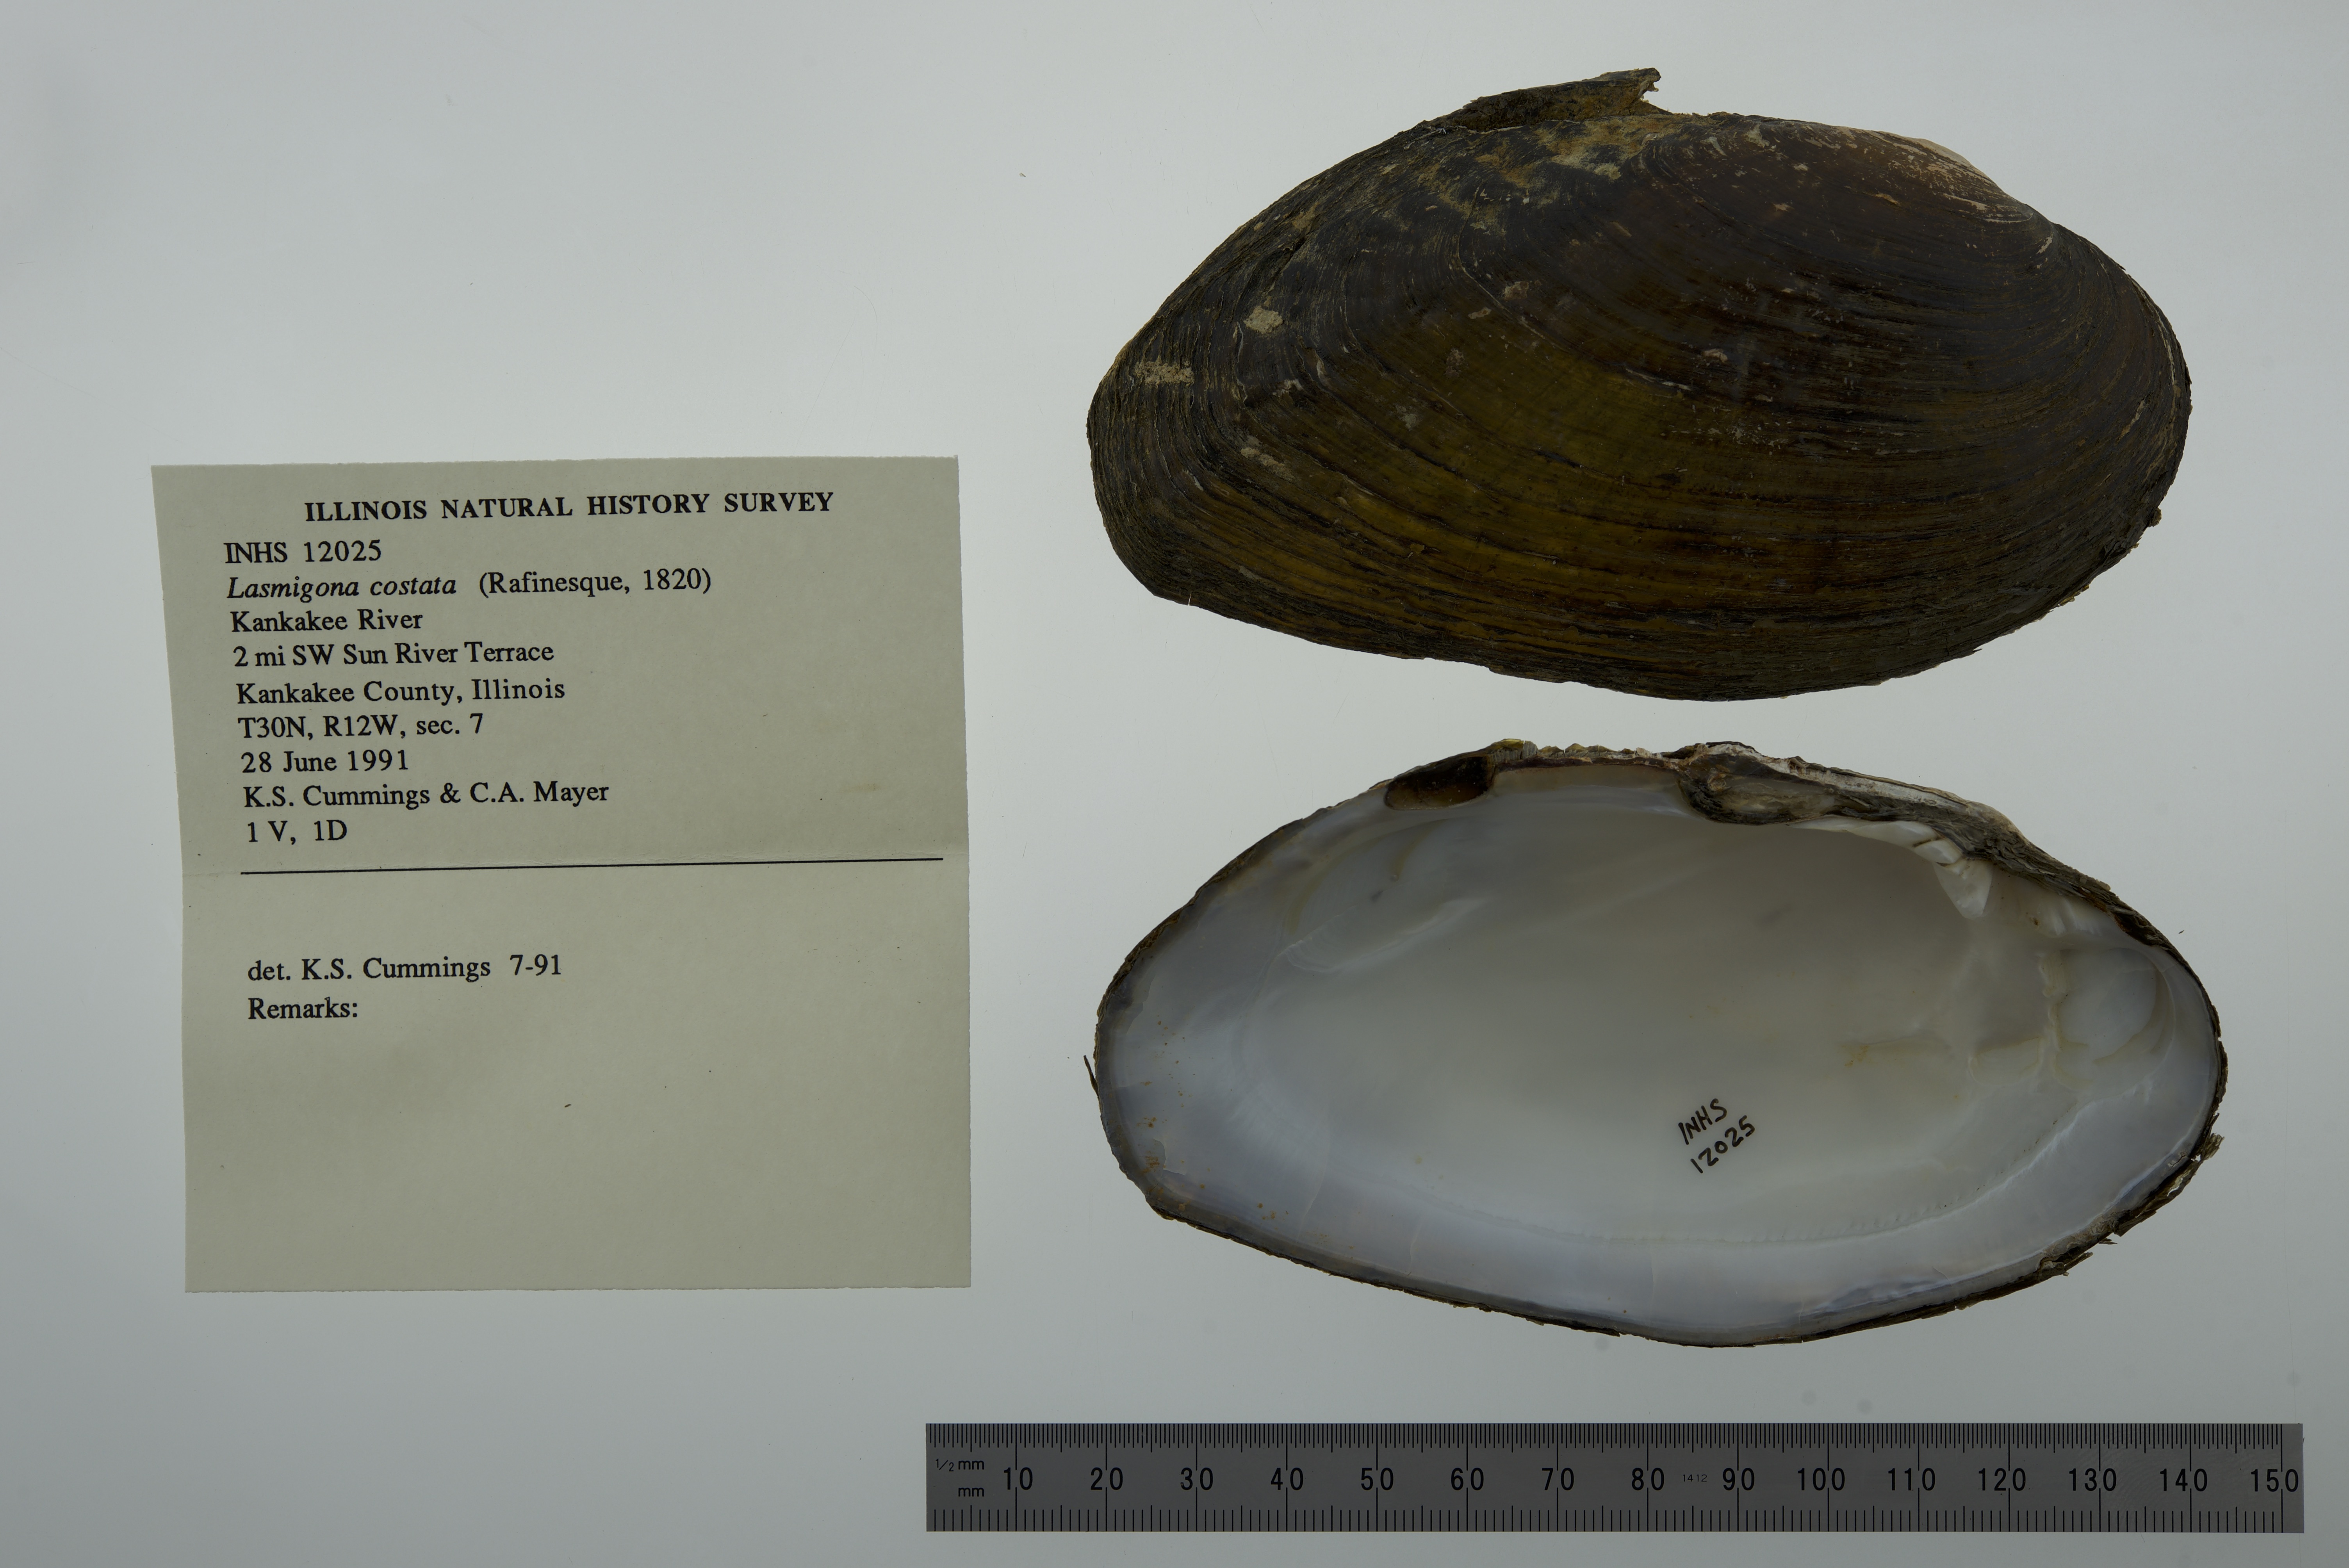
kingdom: Animalia
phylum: Mollusca
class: Bivalvia
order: Unionida
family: Unionidae
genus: Lasmigona
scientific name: Lasmigona costata
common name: Flutedshell
